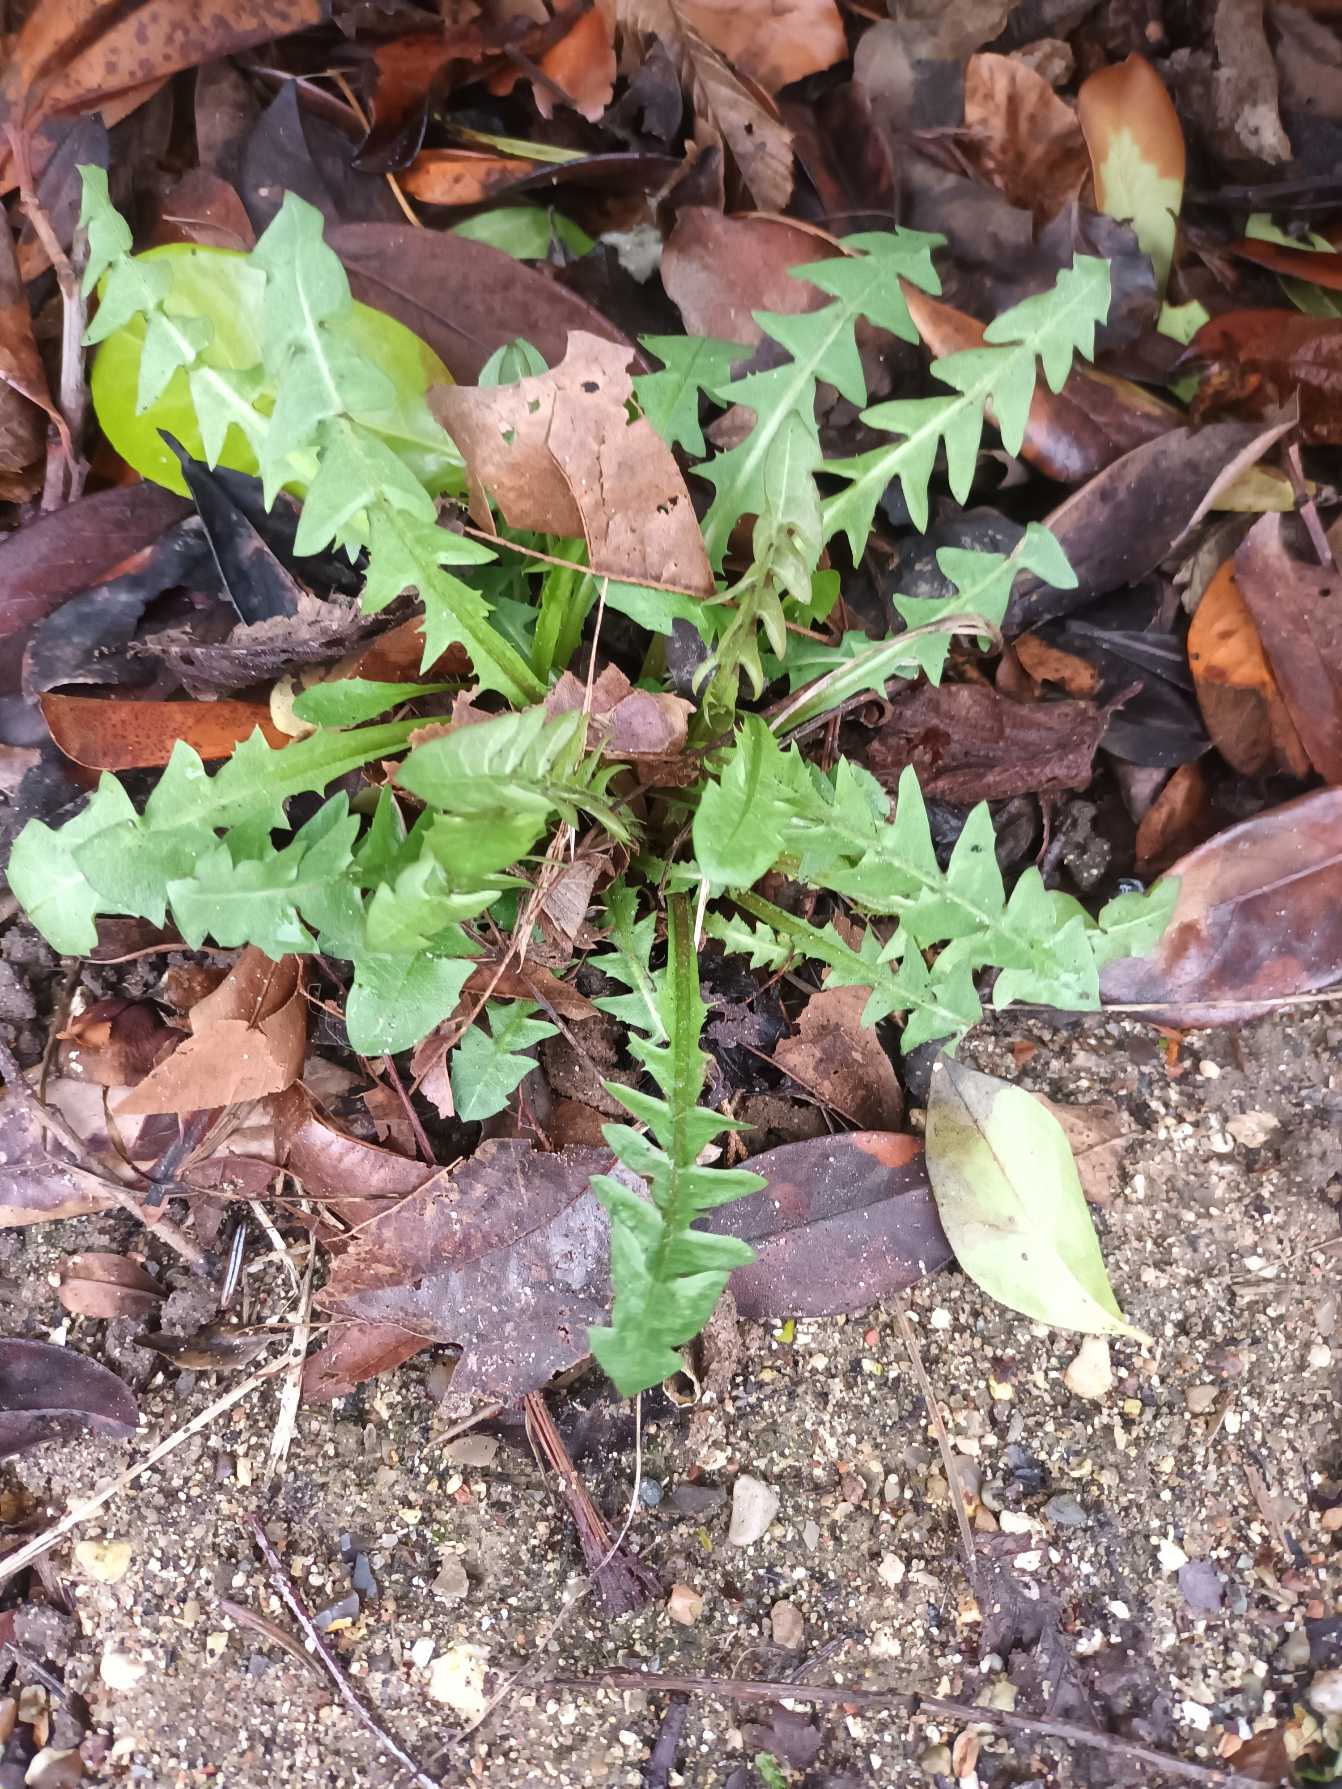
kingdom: Plantae
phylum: Tracheophyta
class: Magnoliopsida
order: Asterales
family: Asteraceae
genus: Taraxacum
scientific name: Taraxacum
